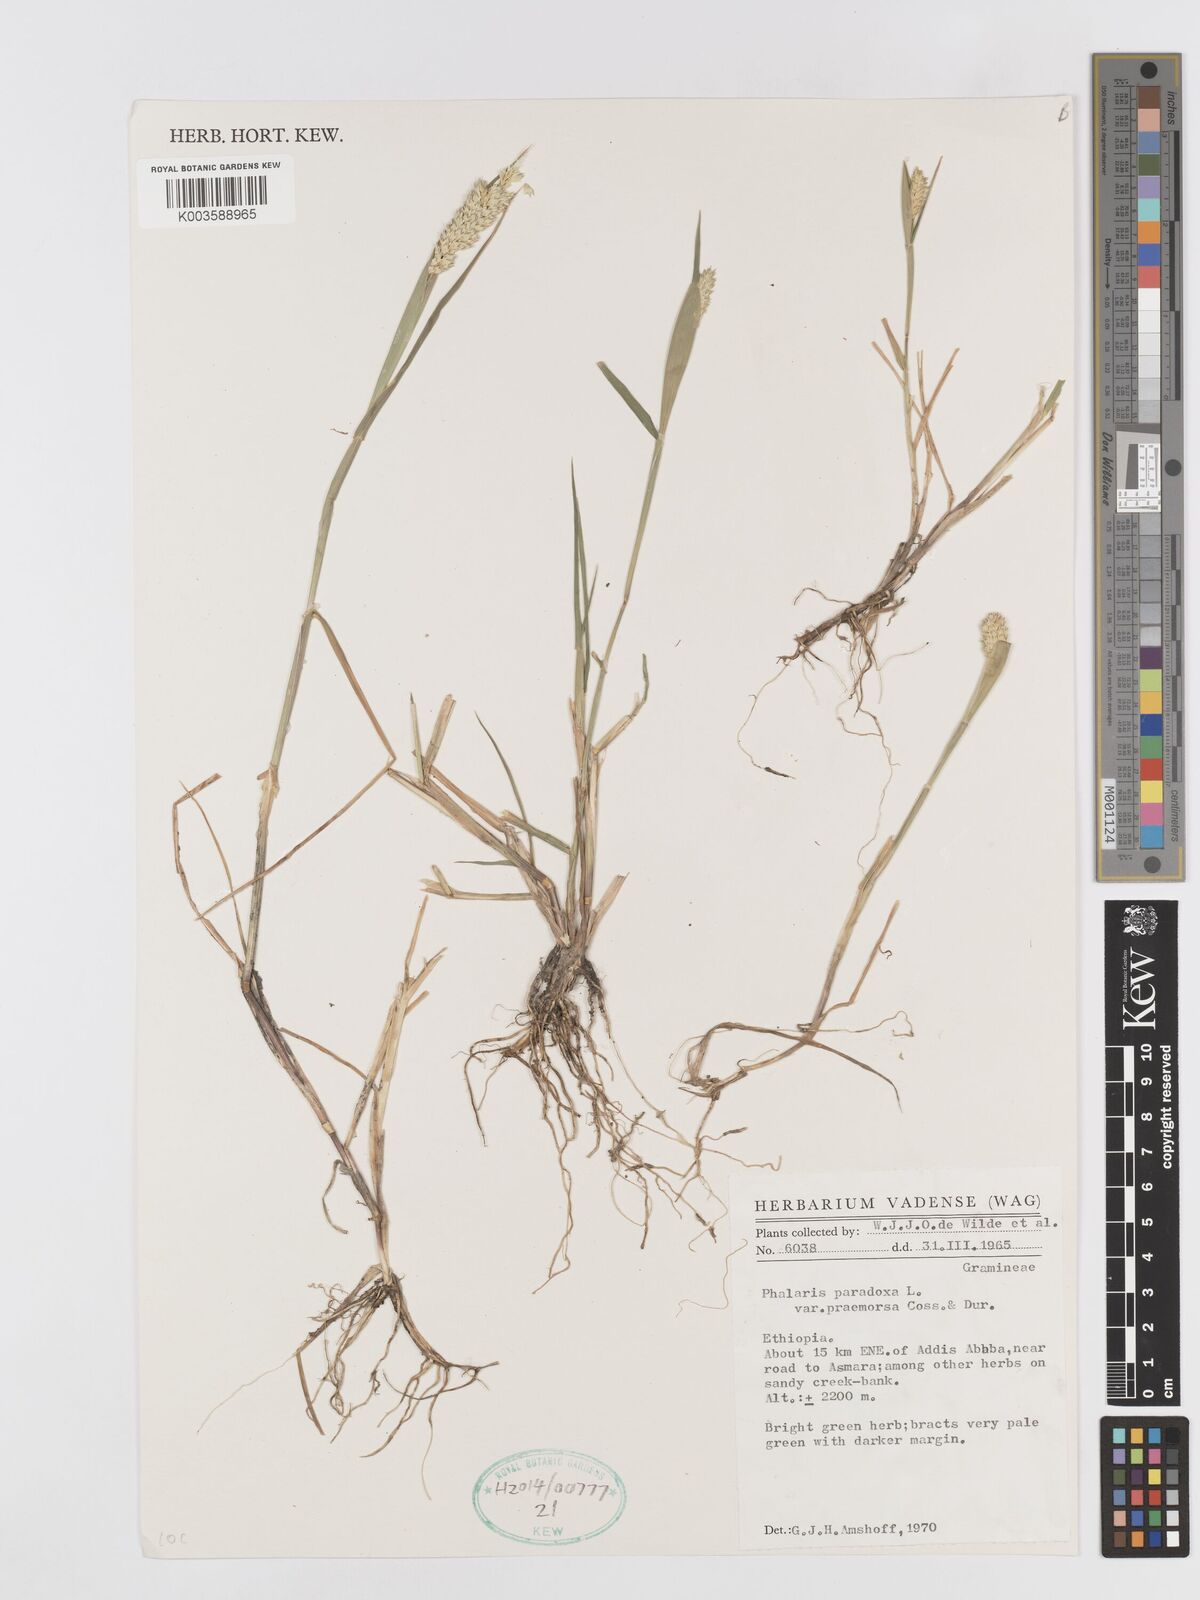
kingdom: Plantae
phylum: Tracheophyta
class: Liliopsida
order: Poales
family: Poaceae
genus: Phalaris
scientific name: Phalaris paradoxa
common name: Awned canary-grass
